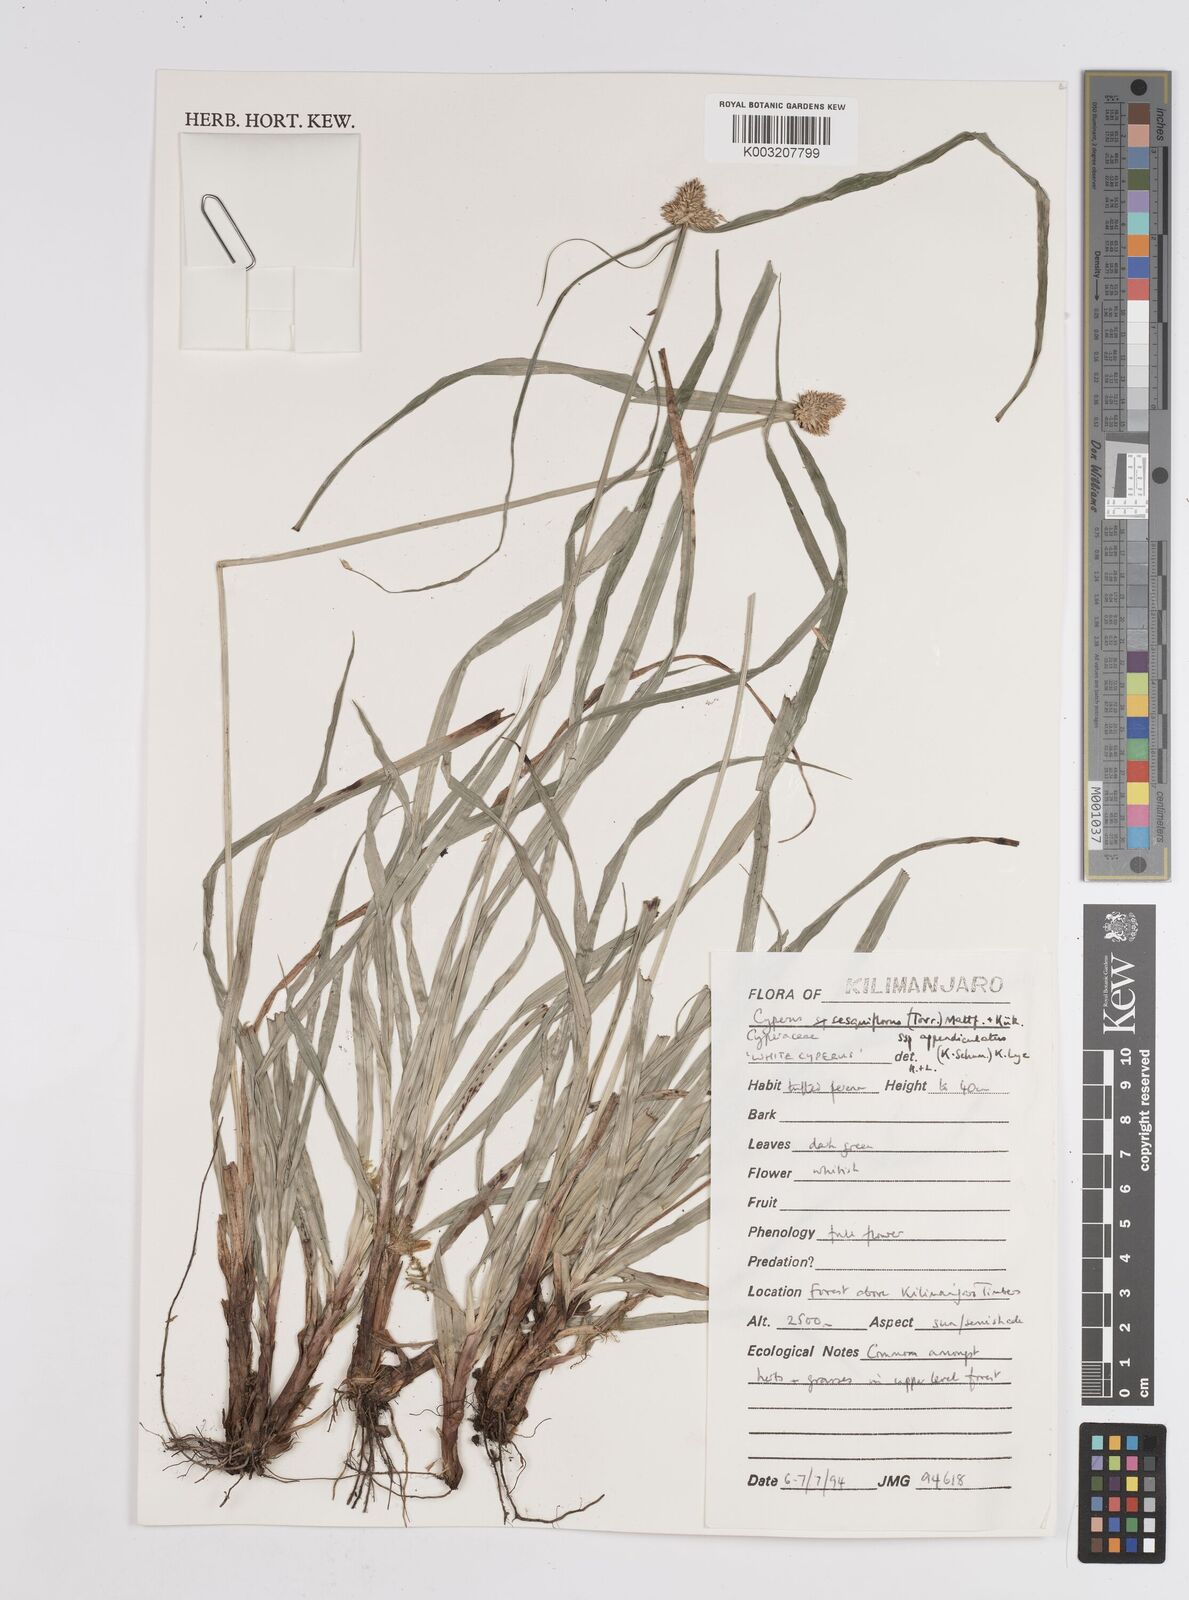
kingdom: Plantae
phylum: Tracheophyta
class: Liliopsida
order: Poales
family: Cyperaceae
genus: Cyperus
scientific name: Cyperus
